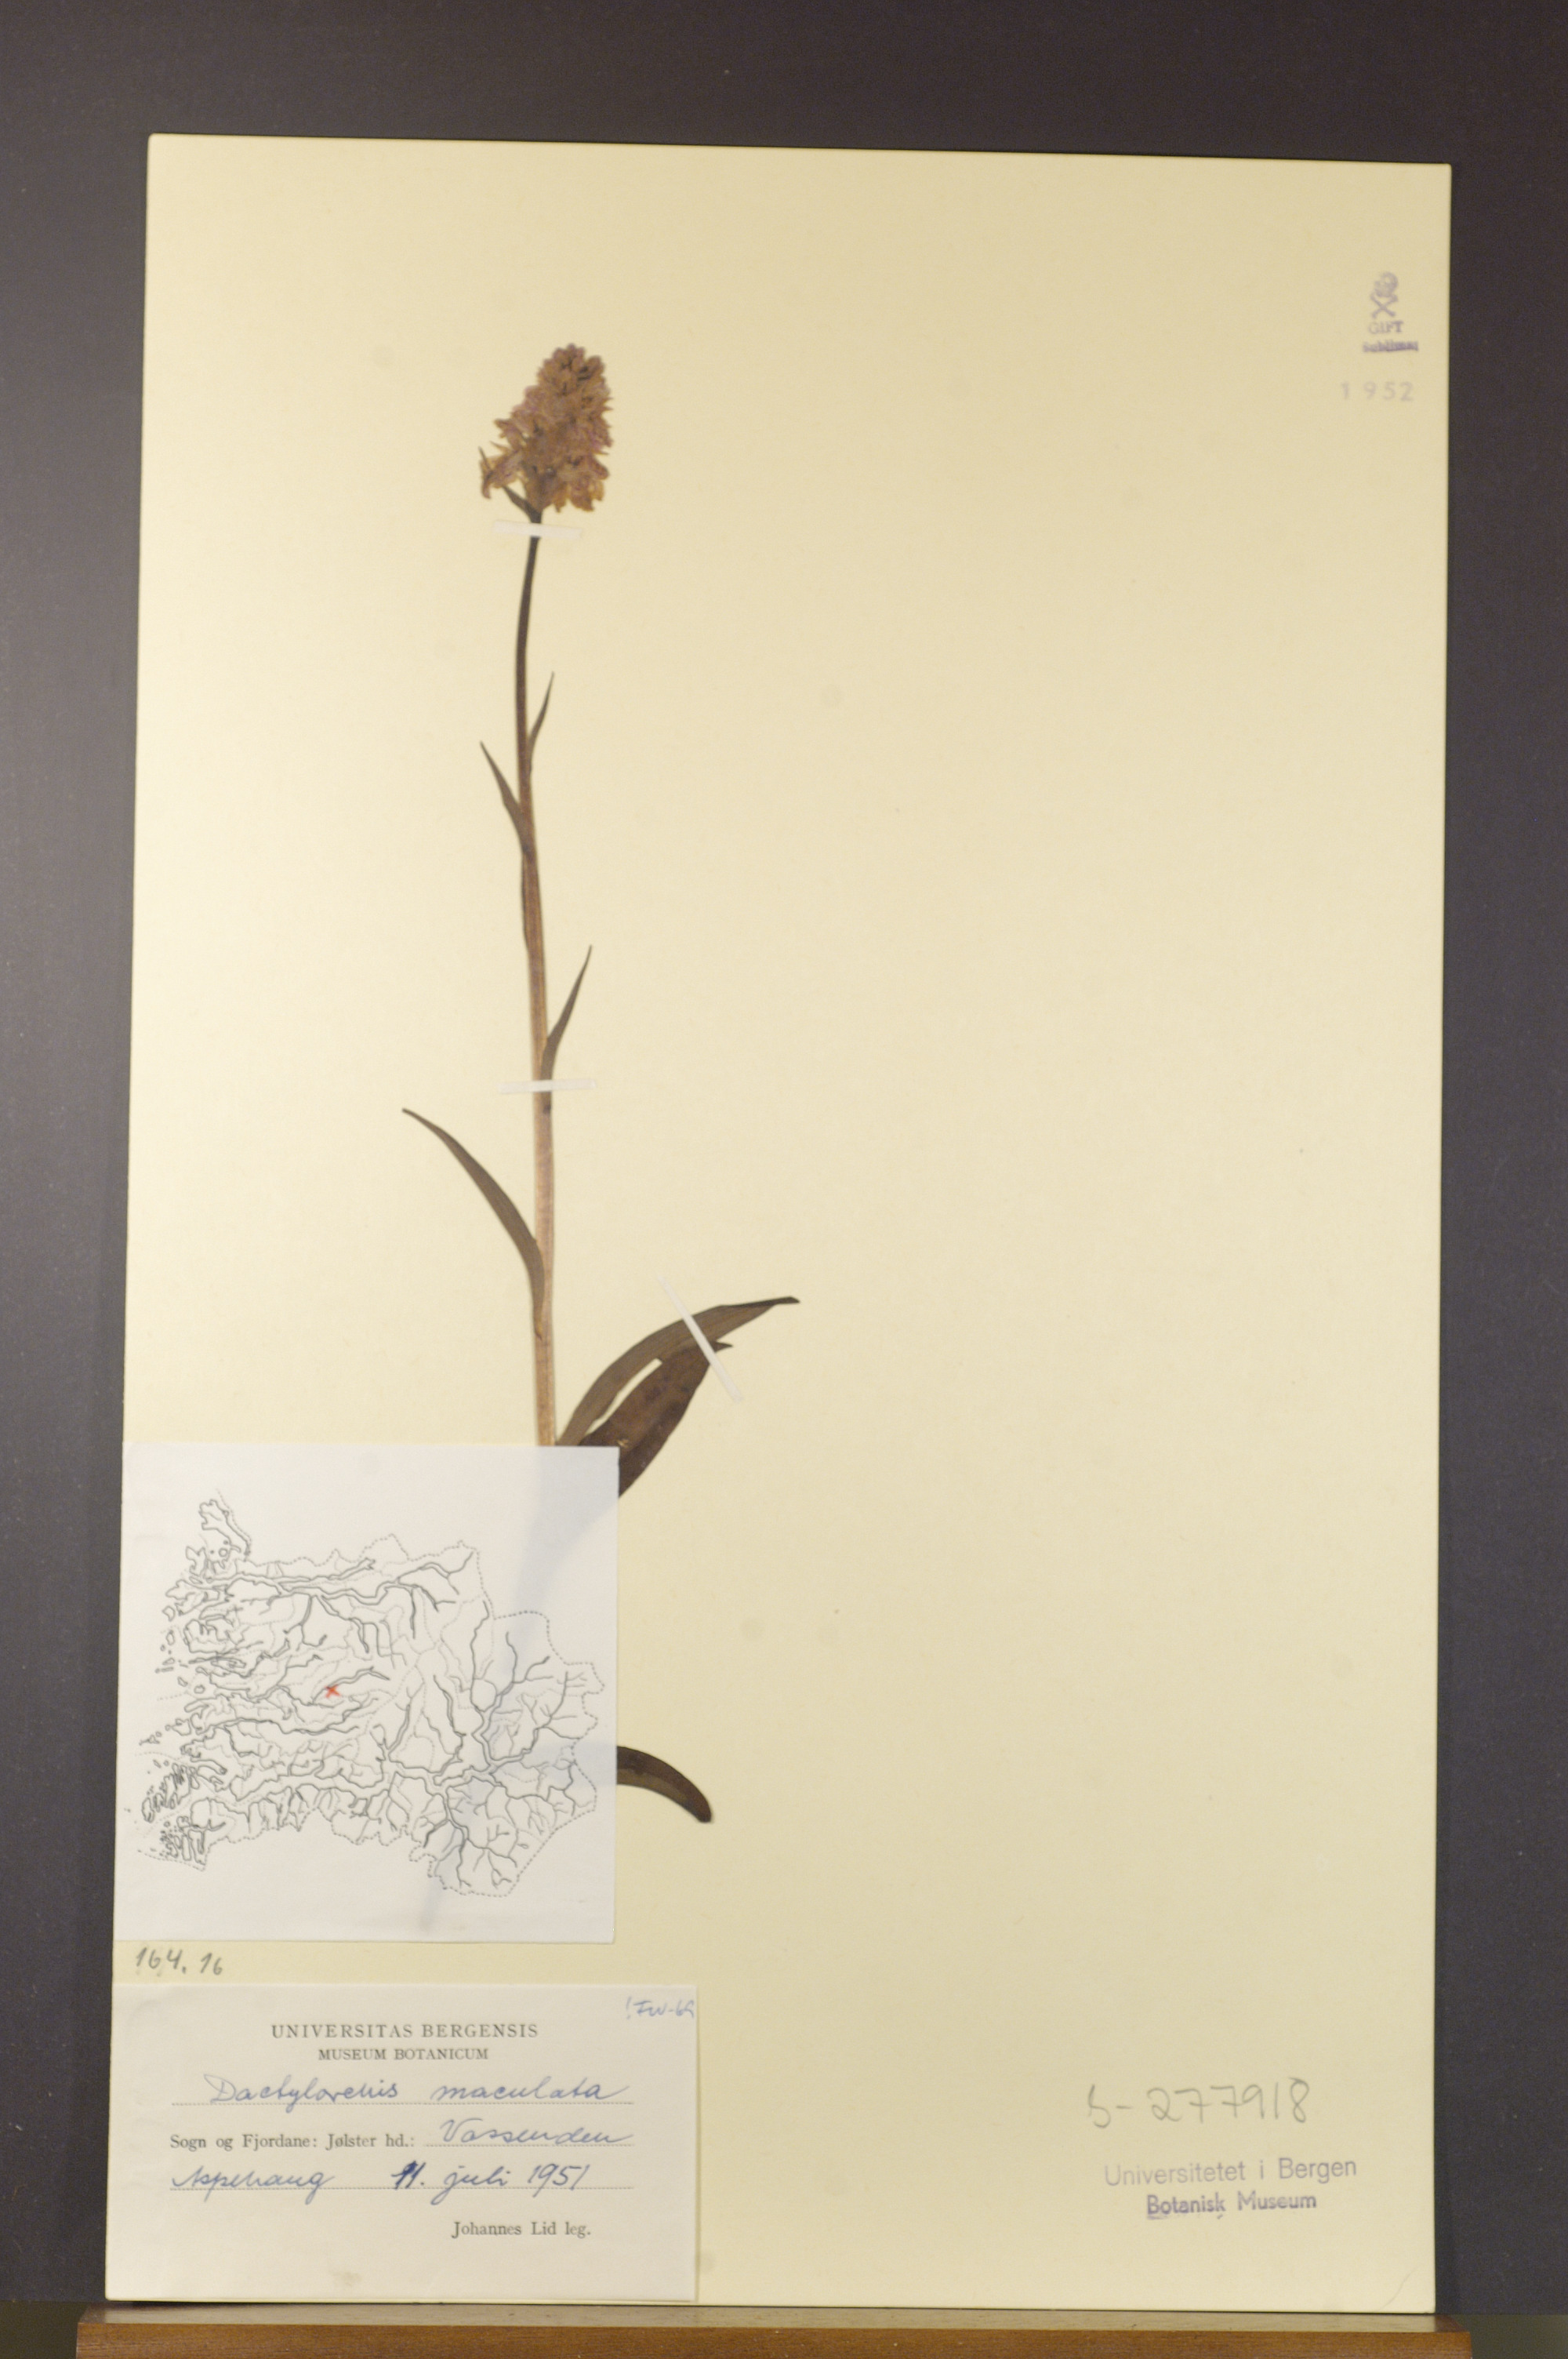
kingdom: Plantae
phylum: Tracheophyta
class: Liliopsida
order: Asparagales
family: Orchidaceae
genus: Dactylorhiza
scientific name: Dactylorhiza maculata
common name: Heath spotted-orchid
